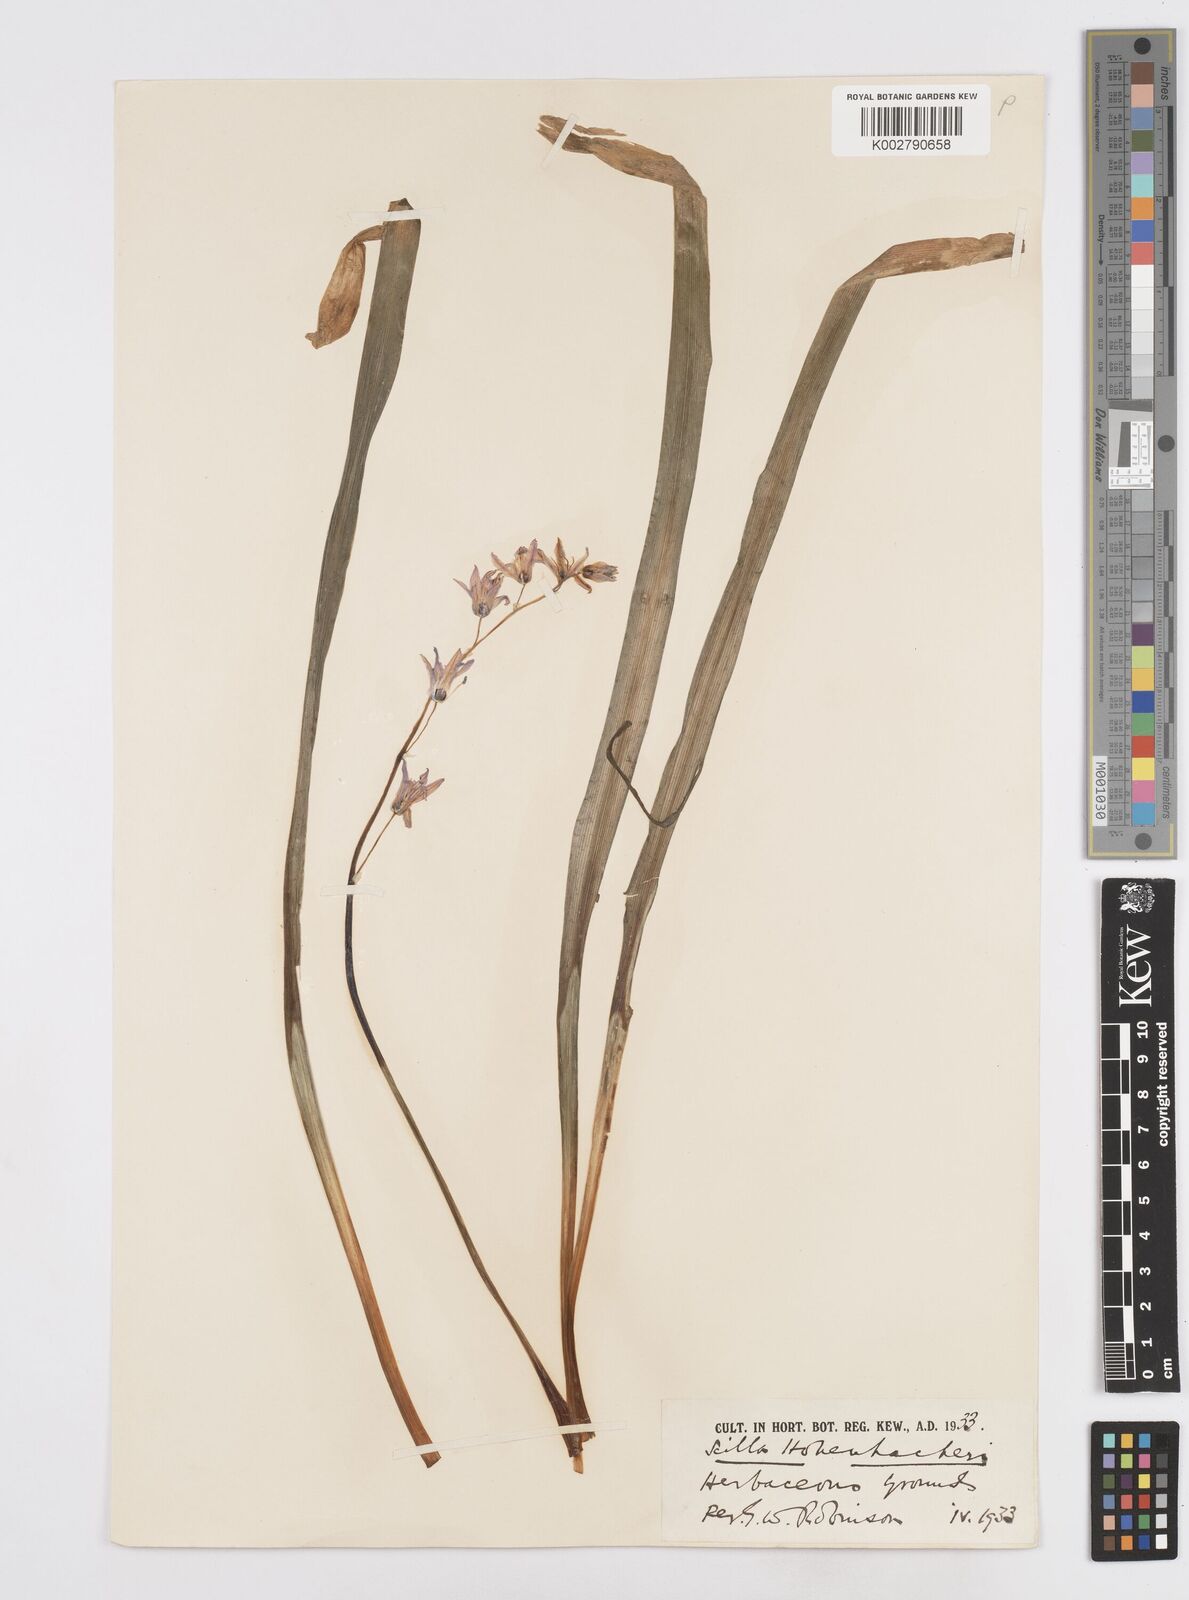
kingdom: Plantae
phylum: Tracheophyta
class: Liliopsida
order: Asparagales
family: Asparagaceae
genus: Scilla
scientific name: Scilla cilicica
